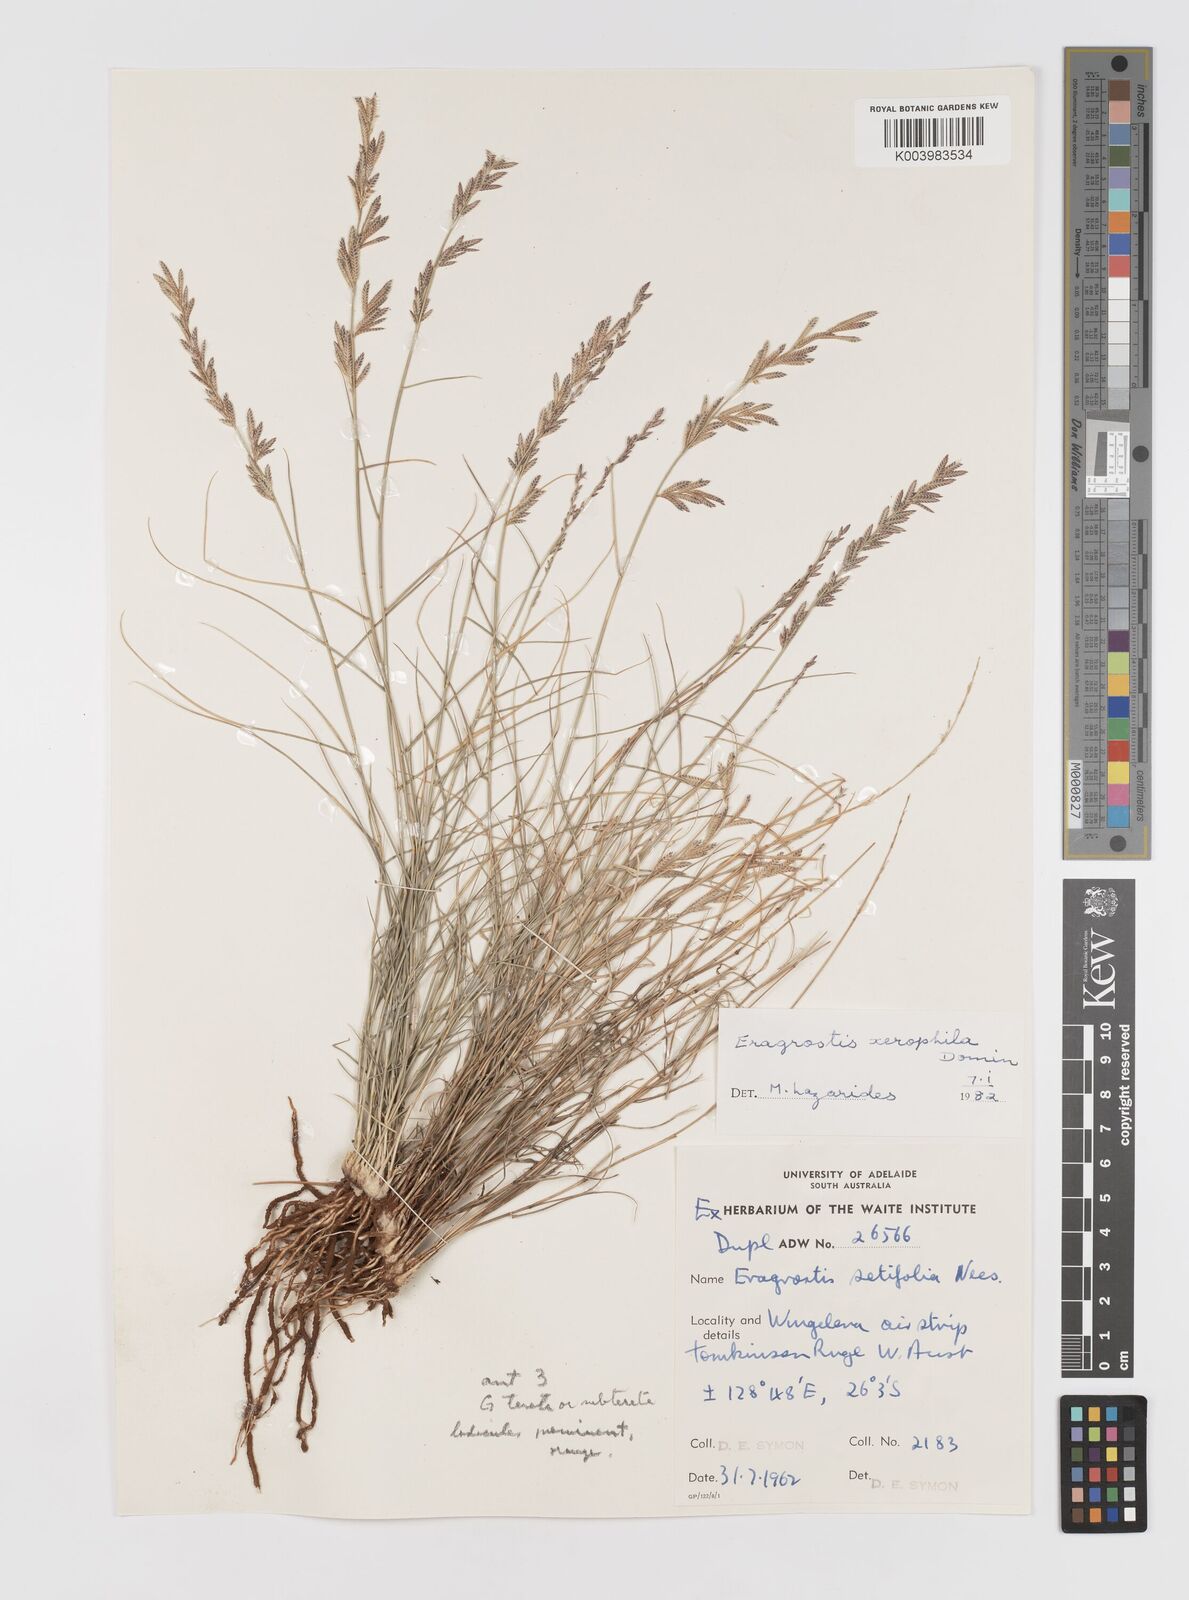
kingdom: Plantae
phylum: Tracheophyta
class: Liliopsida
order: Poales
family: Poaceae
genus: Eragrostis
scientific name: Eragrostis xerophila
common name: Wire wandarrie grass
